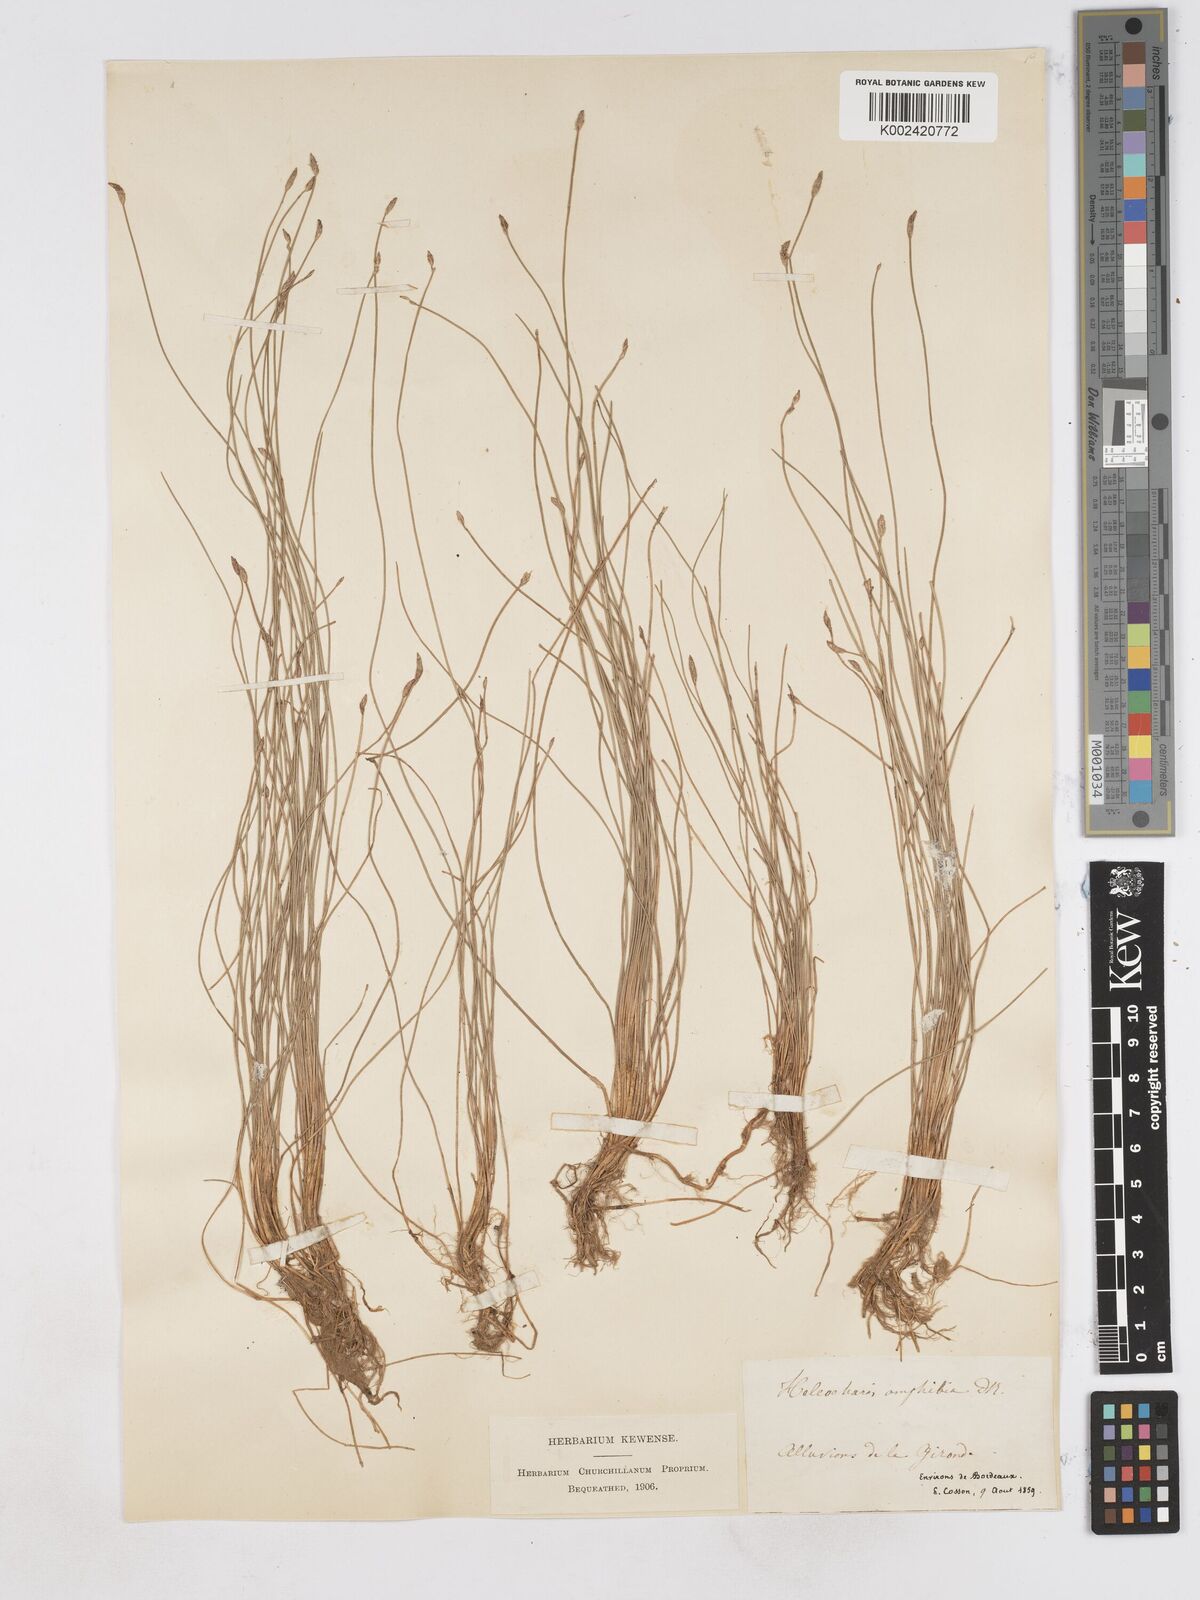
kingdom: Plantae
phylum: Tracheophyta
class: Liliopsida
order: Poales
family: Cyperaceae
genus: Eleocharis
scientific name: Eleocharis bonariensis
